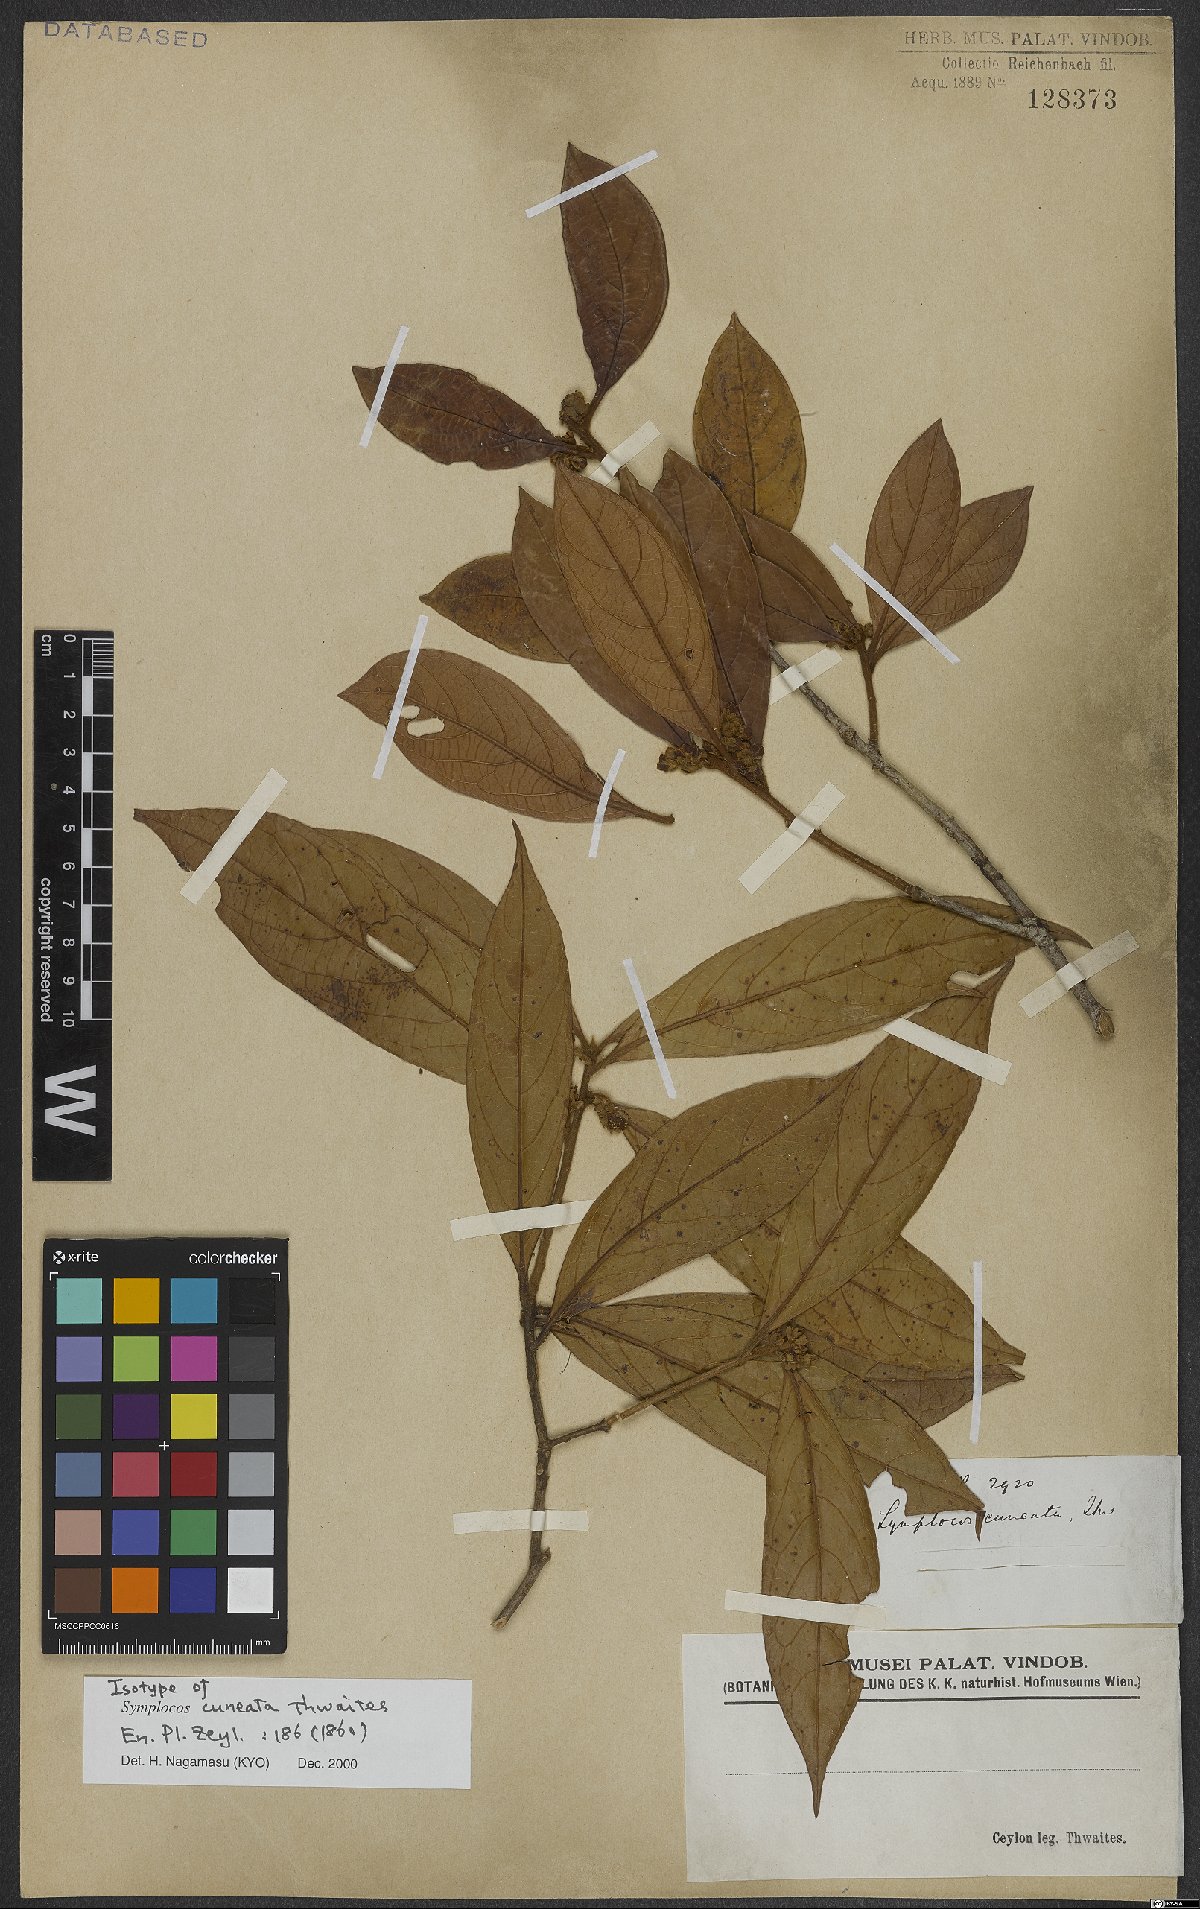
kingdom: Plantae
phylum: Tracheophyta
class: Magnoliopsida
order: Ericales
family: Symplocaceae
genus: Symplocos
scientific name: Symplocos cuneata
